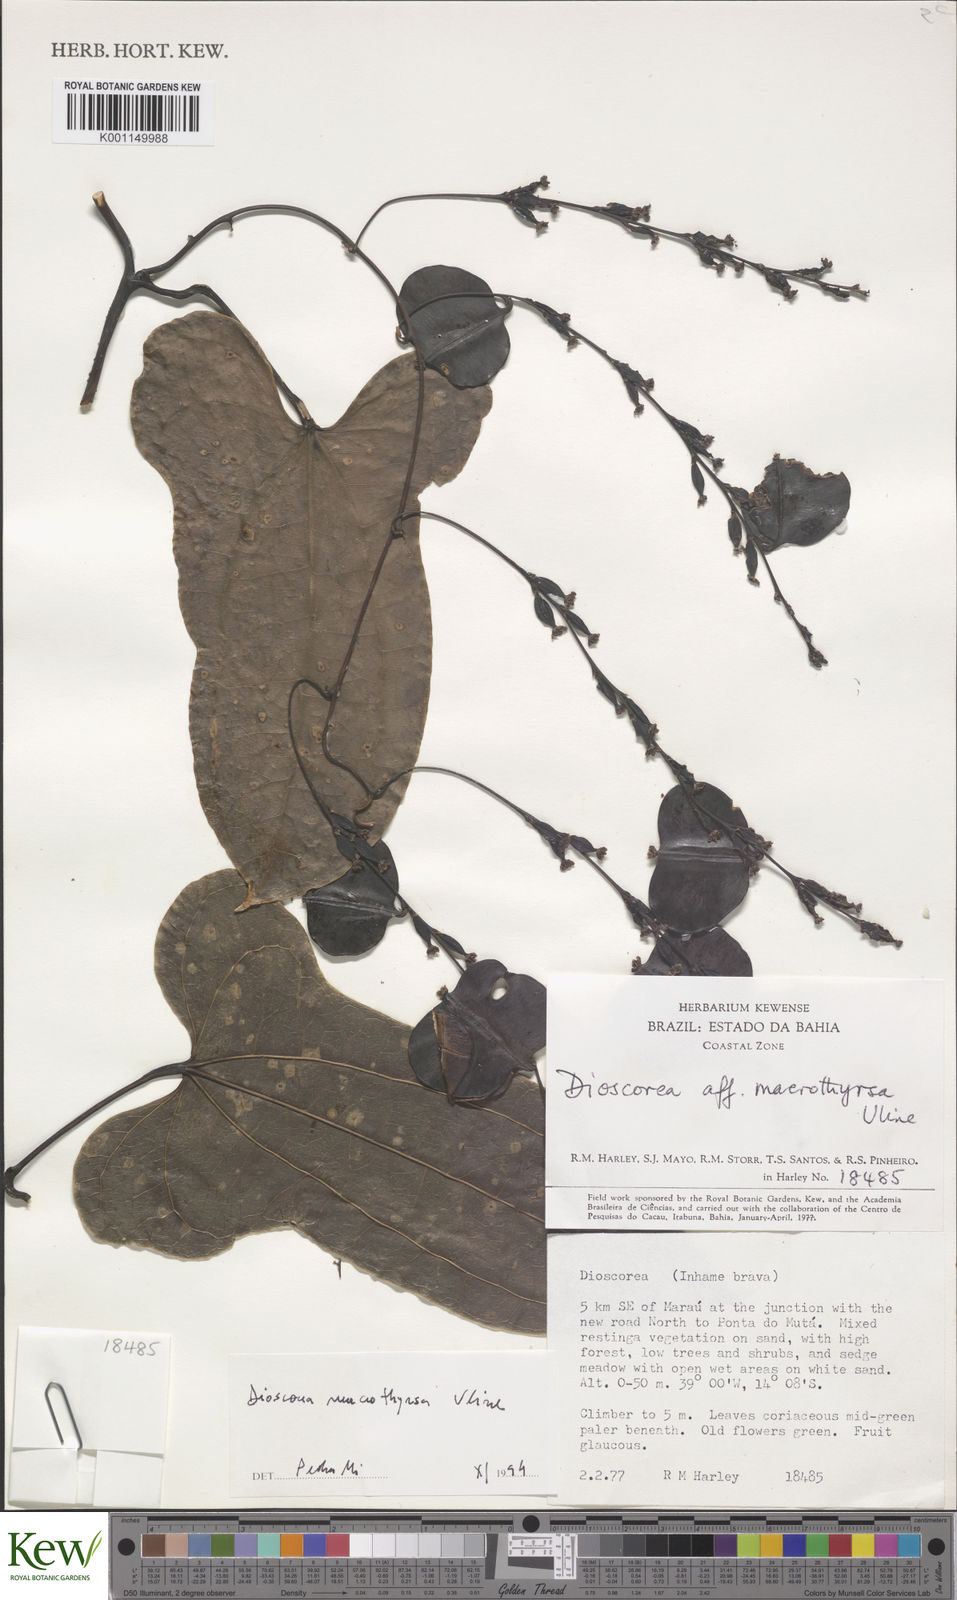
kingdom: Plantae
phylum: Tracheophyta
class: Liliopsida
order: Dioscoreales
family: Dioscoreaceae
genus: Dioscorea
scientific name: Dioscorea macrothyrsa
